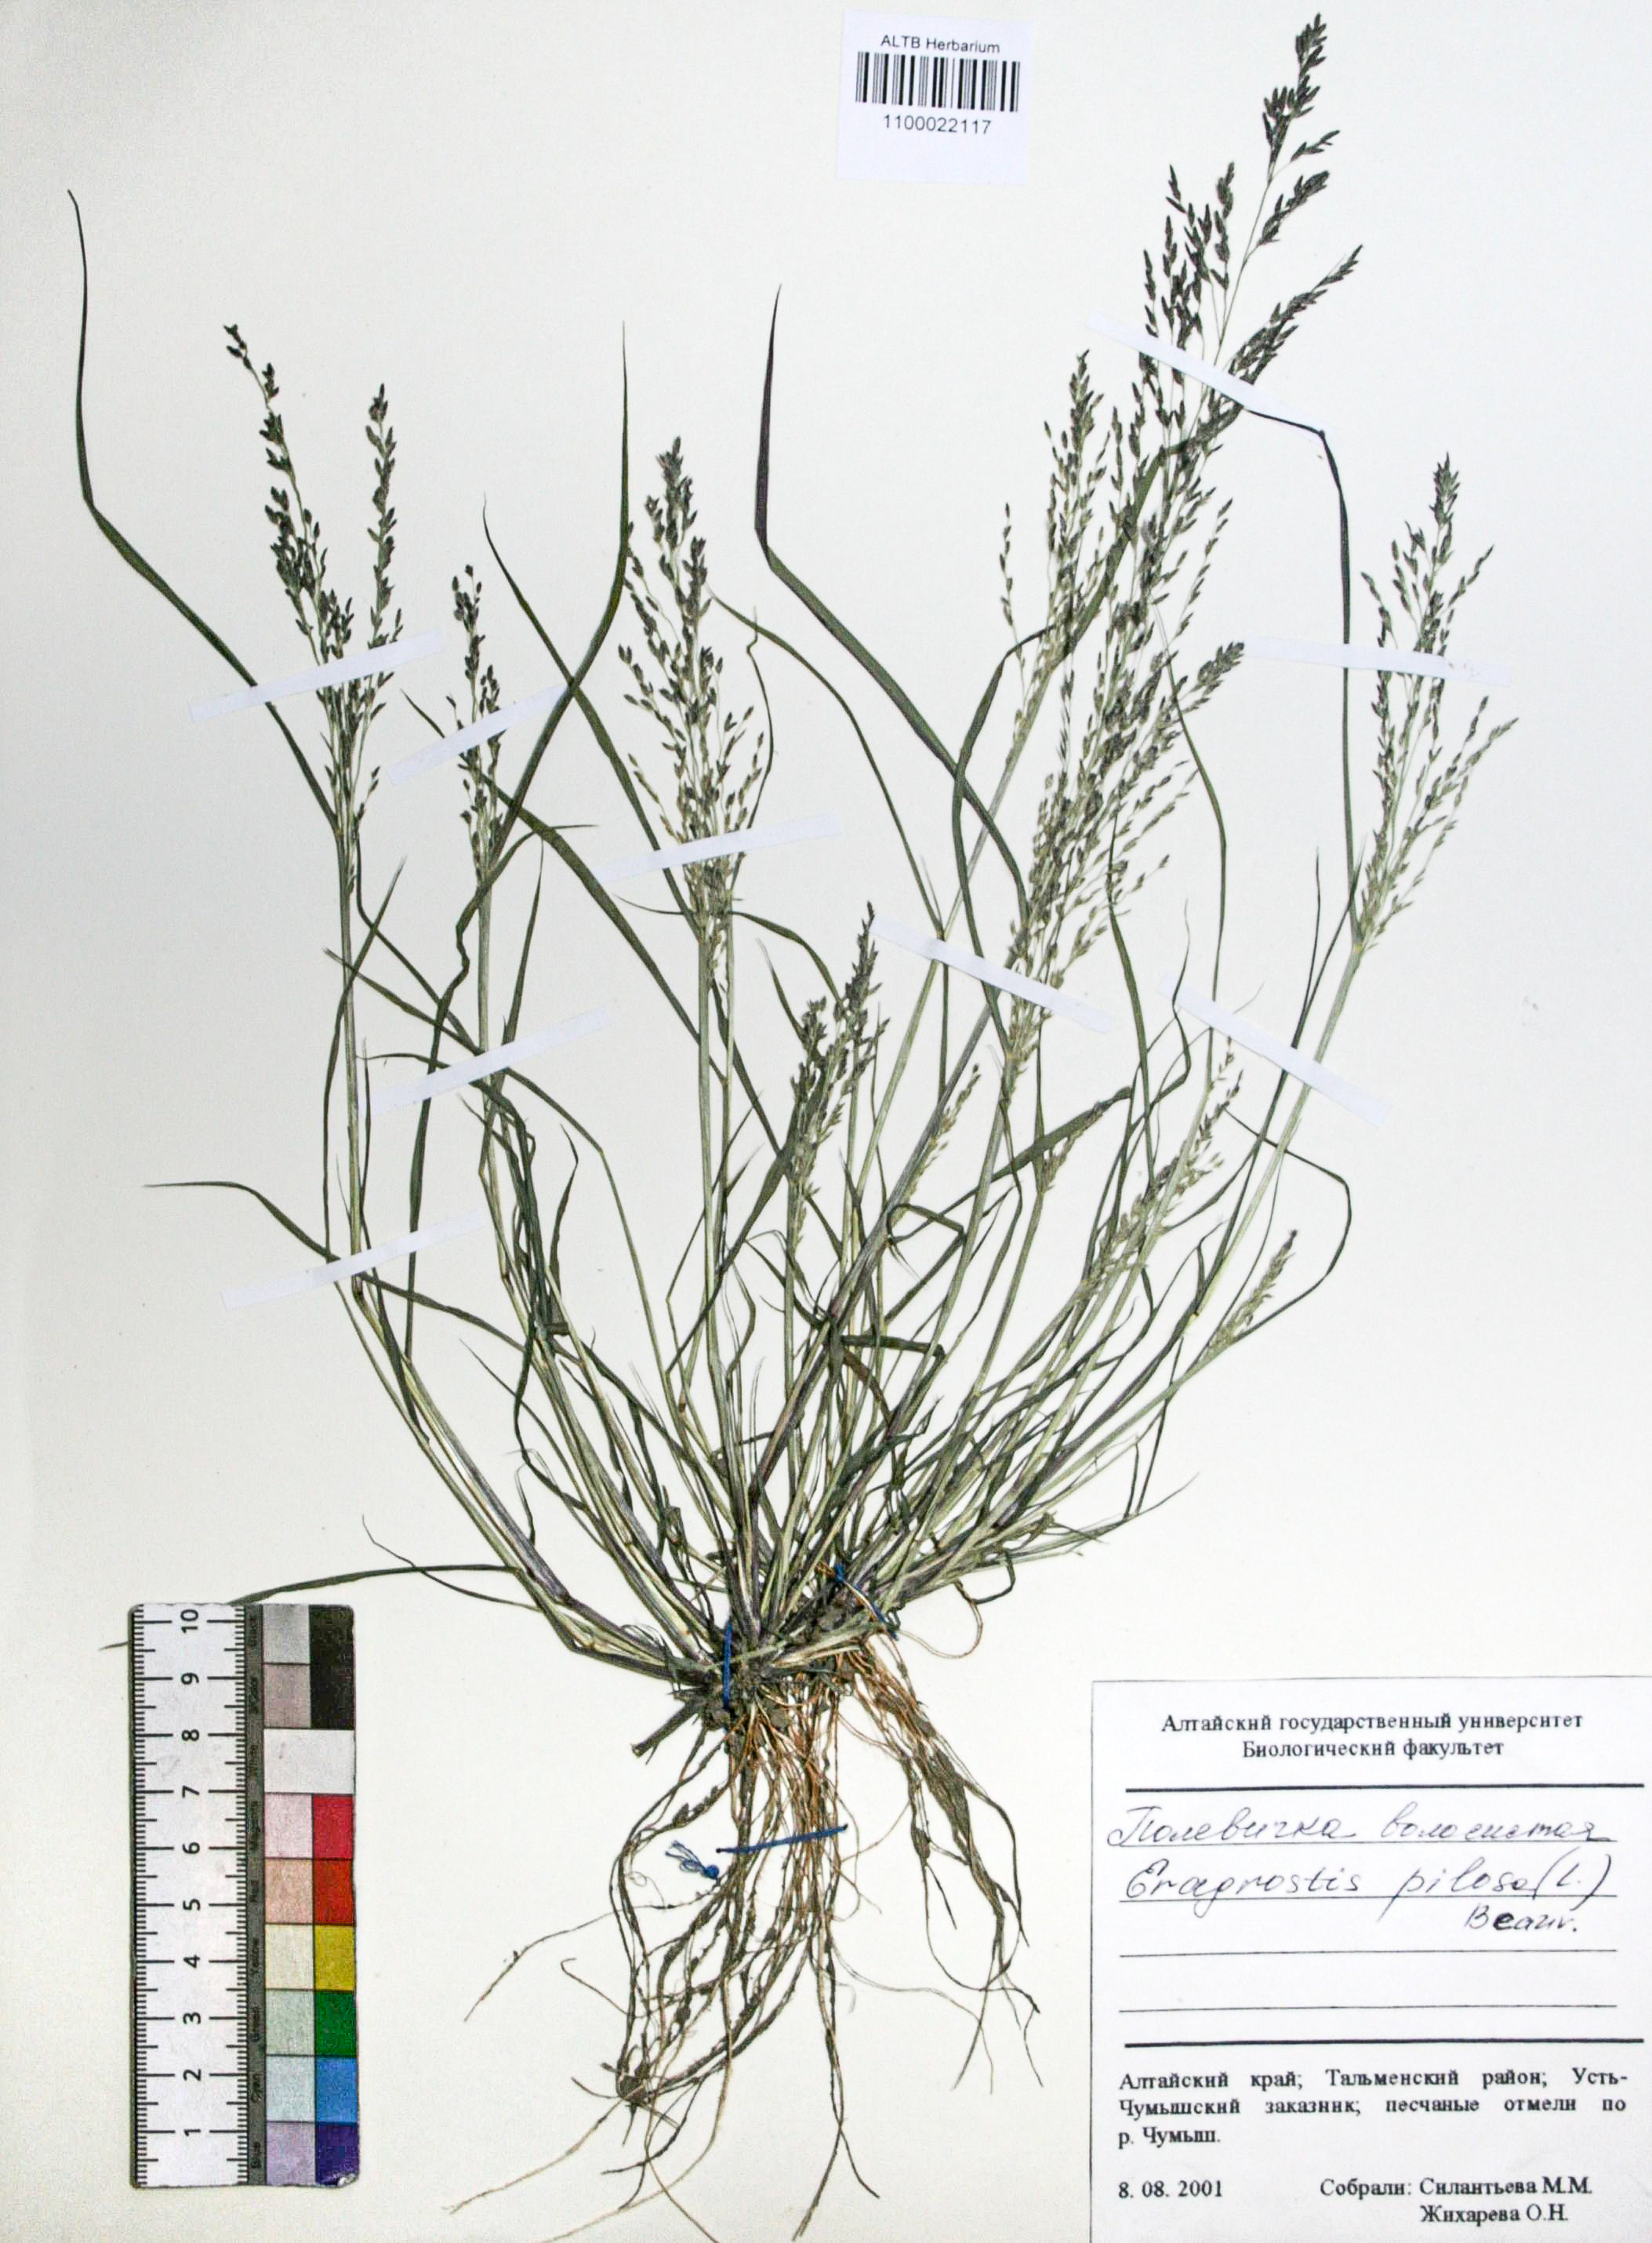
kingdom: Plantae
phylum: Tracheophyta
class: Liliopsida
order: Poales
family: Poaceae
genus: Eragrostis
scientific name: Eragrostis pilosa
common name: Indian lovegrass
